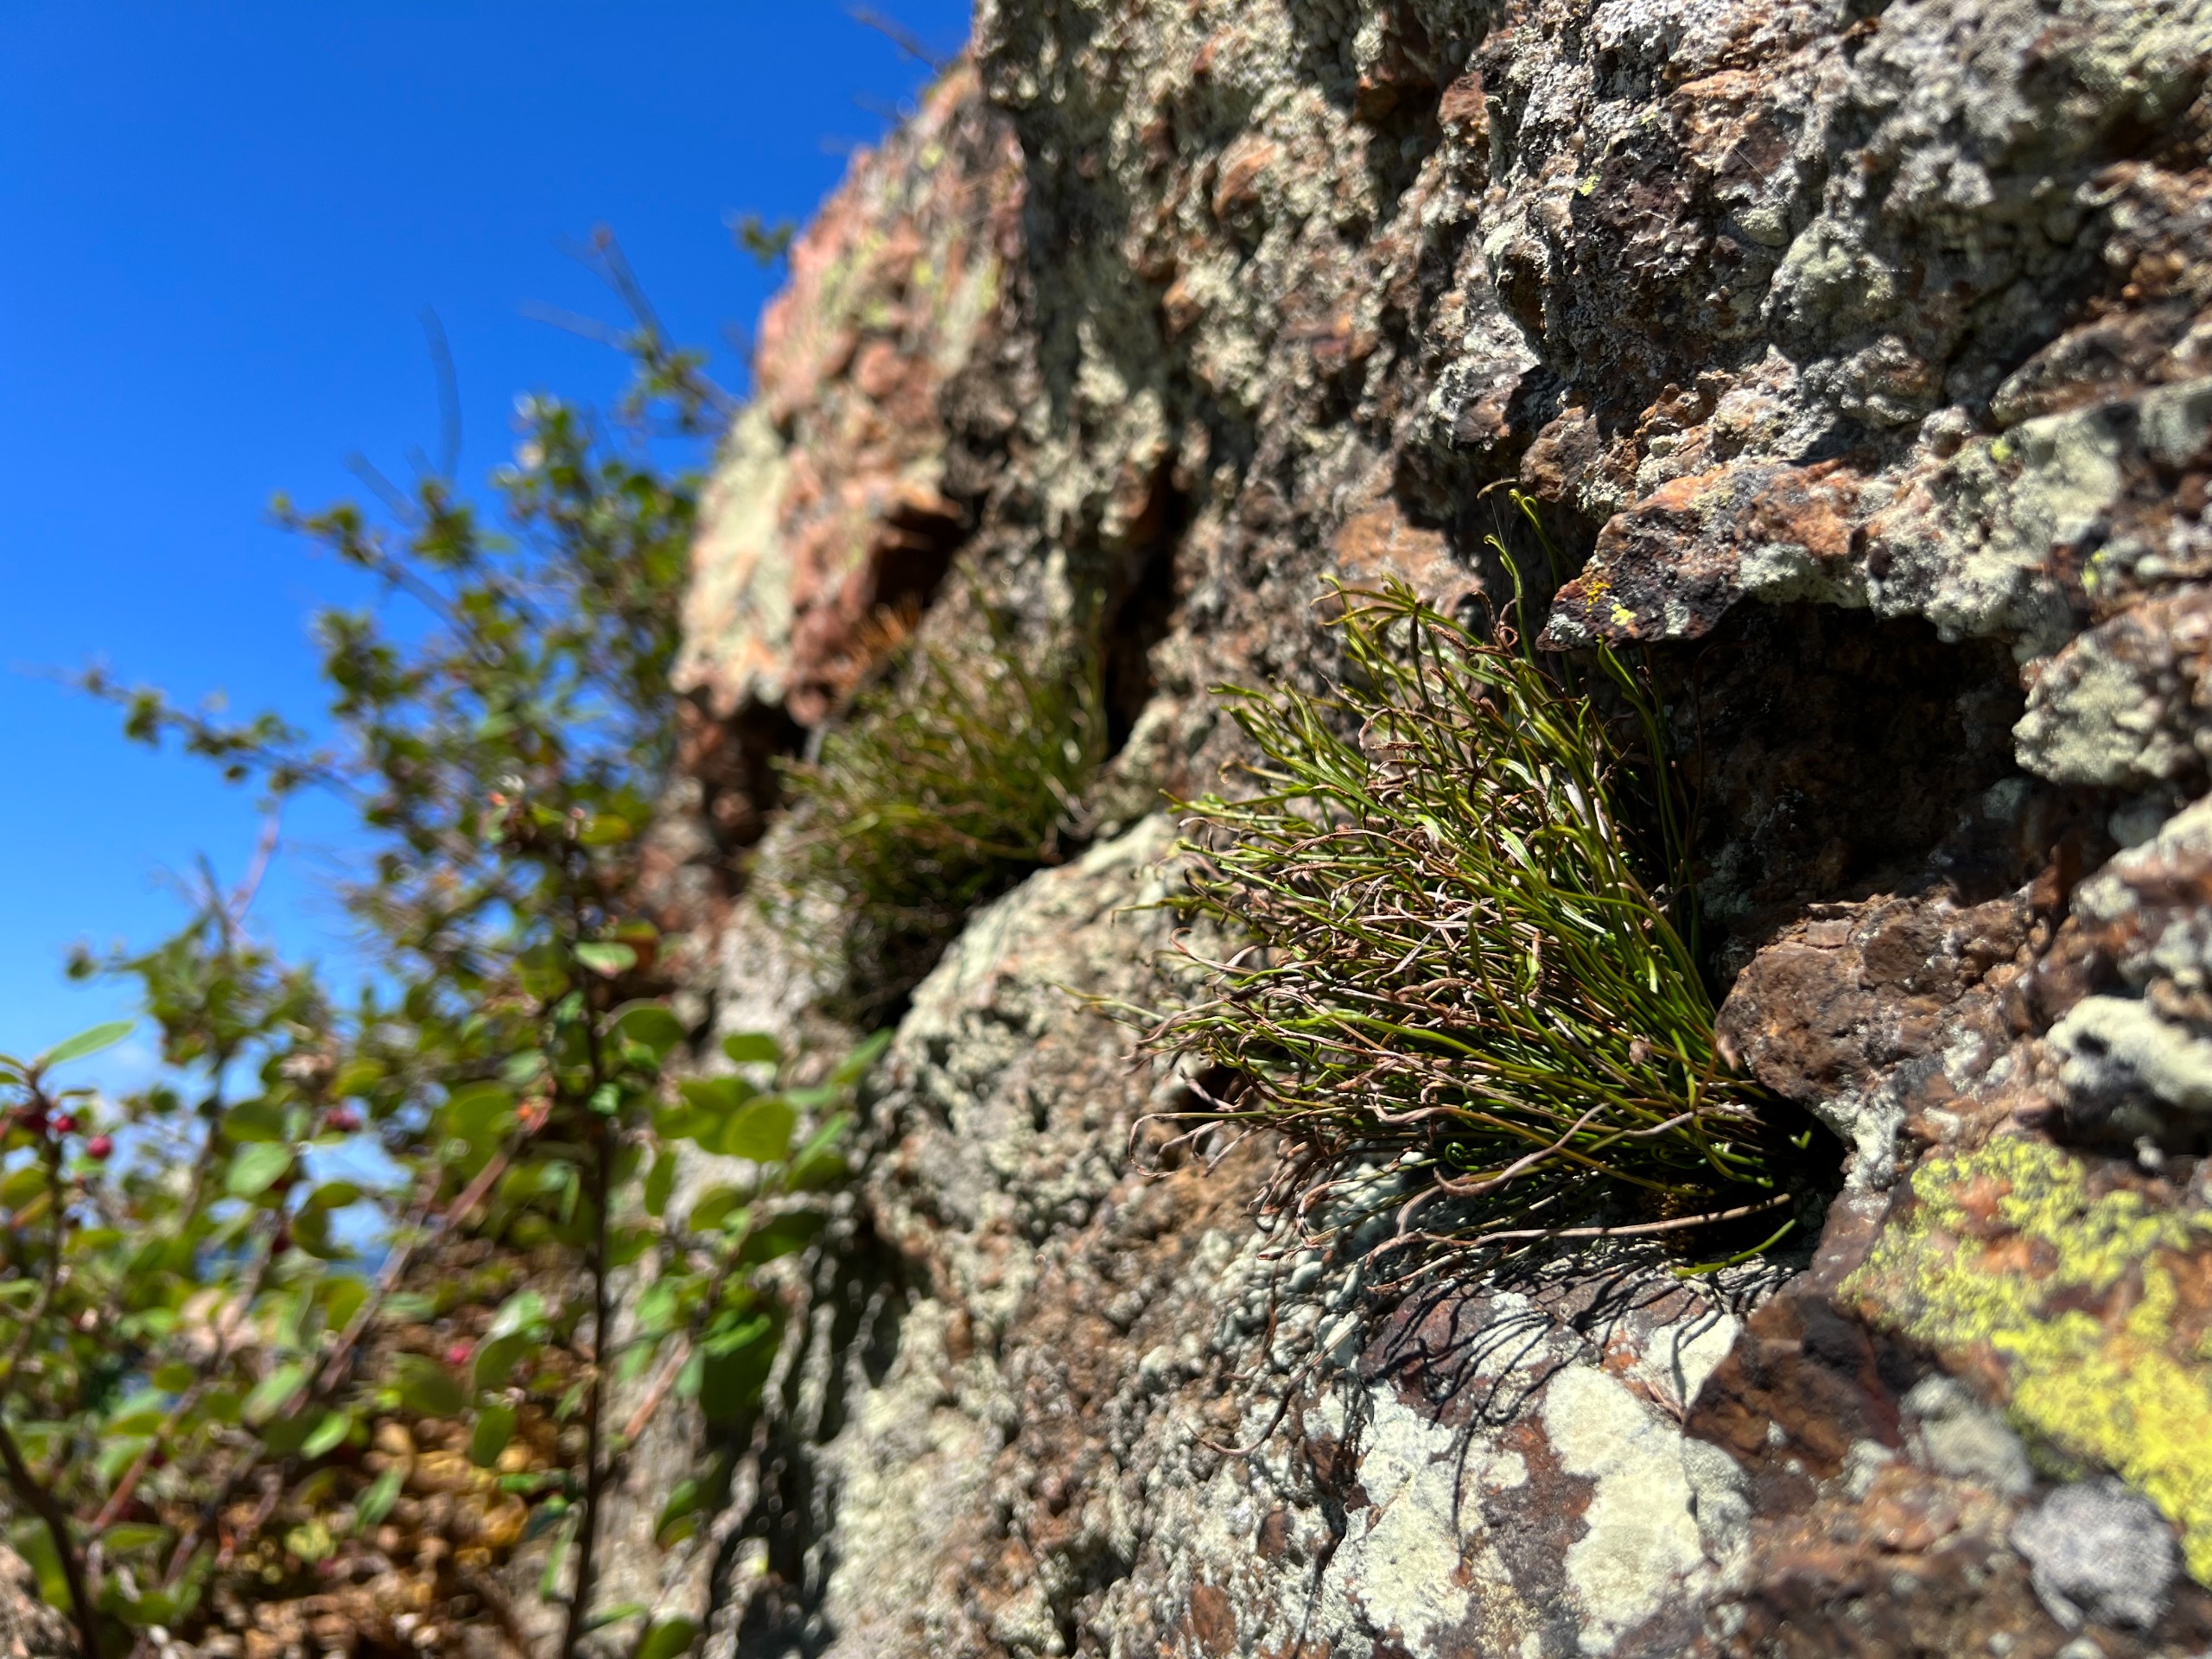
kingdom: Plantae
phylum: Tracheophyta
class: Polypodiopsida
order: Polypodiales
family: Aspleniaceae
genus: Asplenium
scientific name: Asplenium septentrionale
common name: Nordisk radeløv
